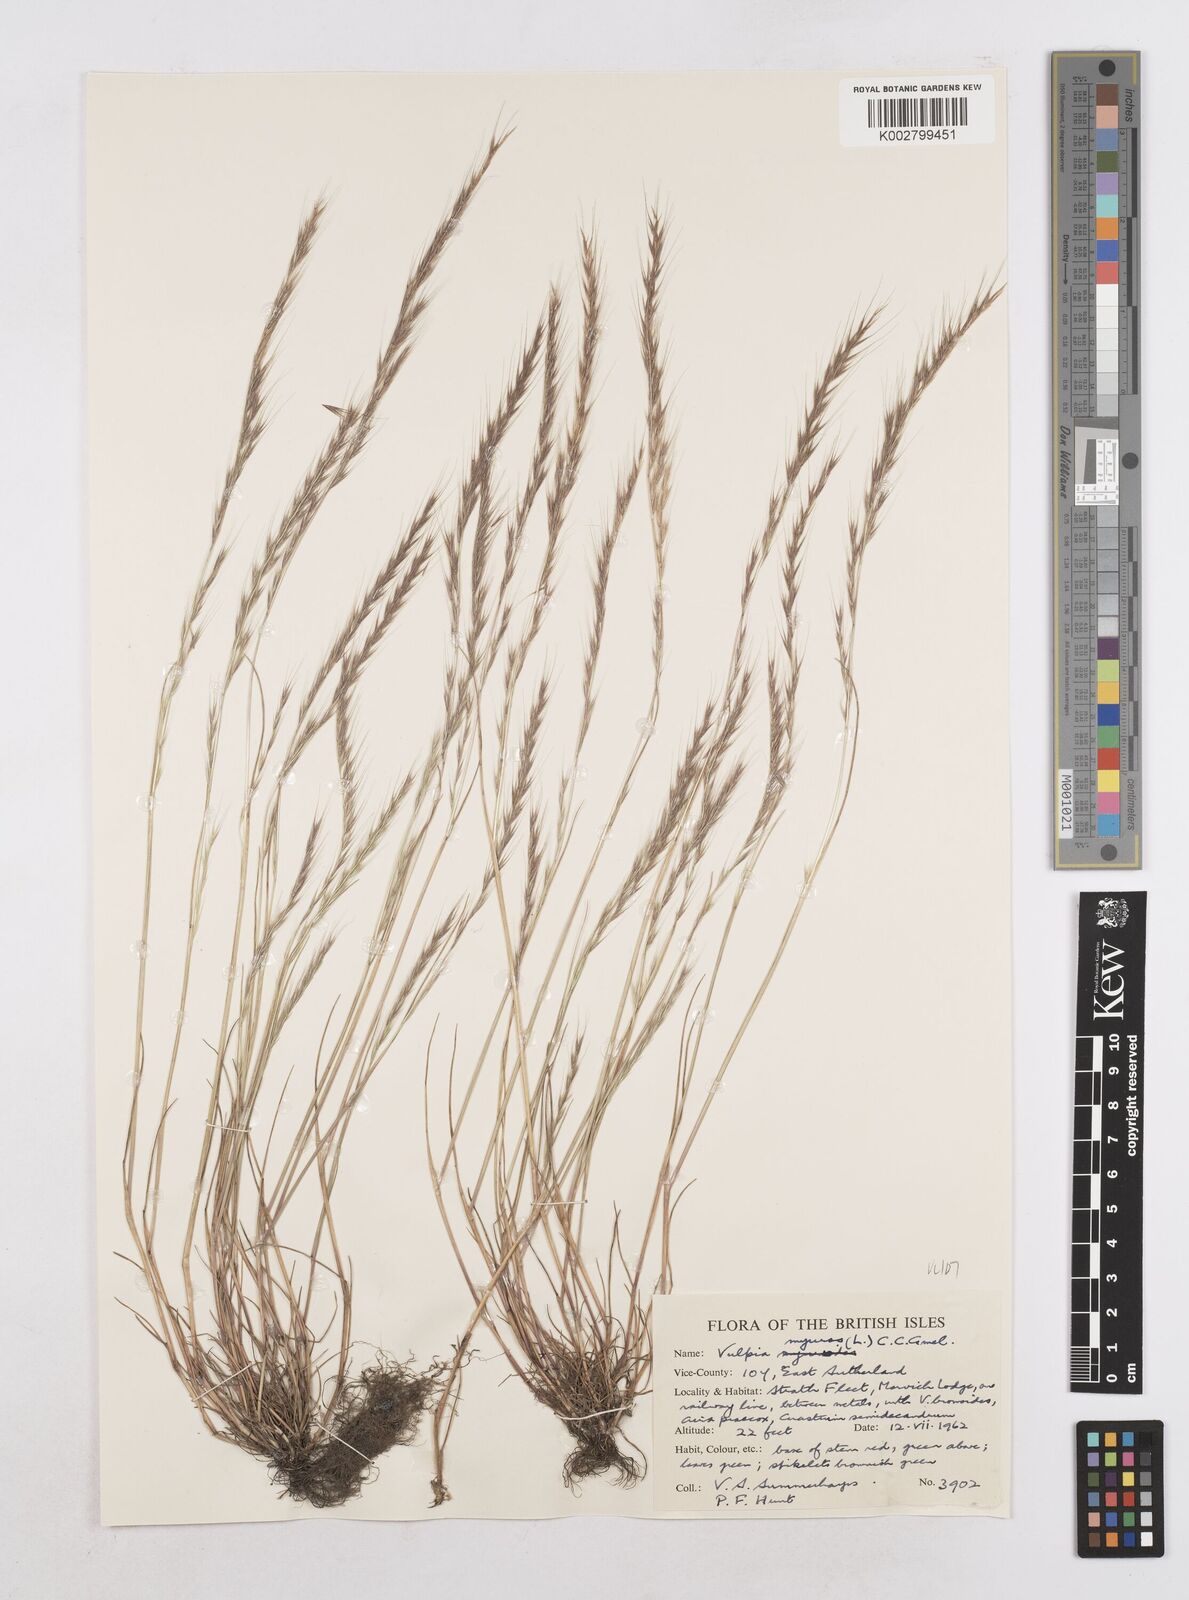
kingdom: Plantae
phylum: Tracheophyta
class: Liliopsida
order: Poales
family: Poaceae
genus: Festuca
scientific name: Festuca myuros
